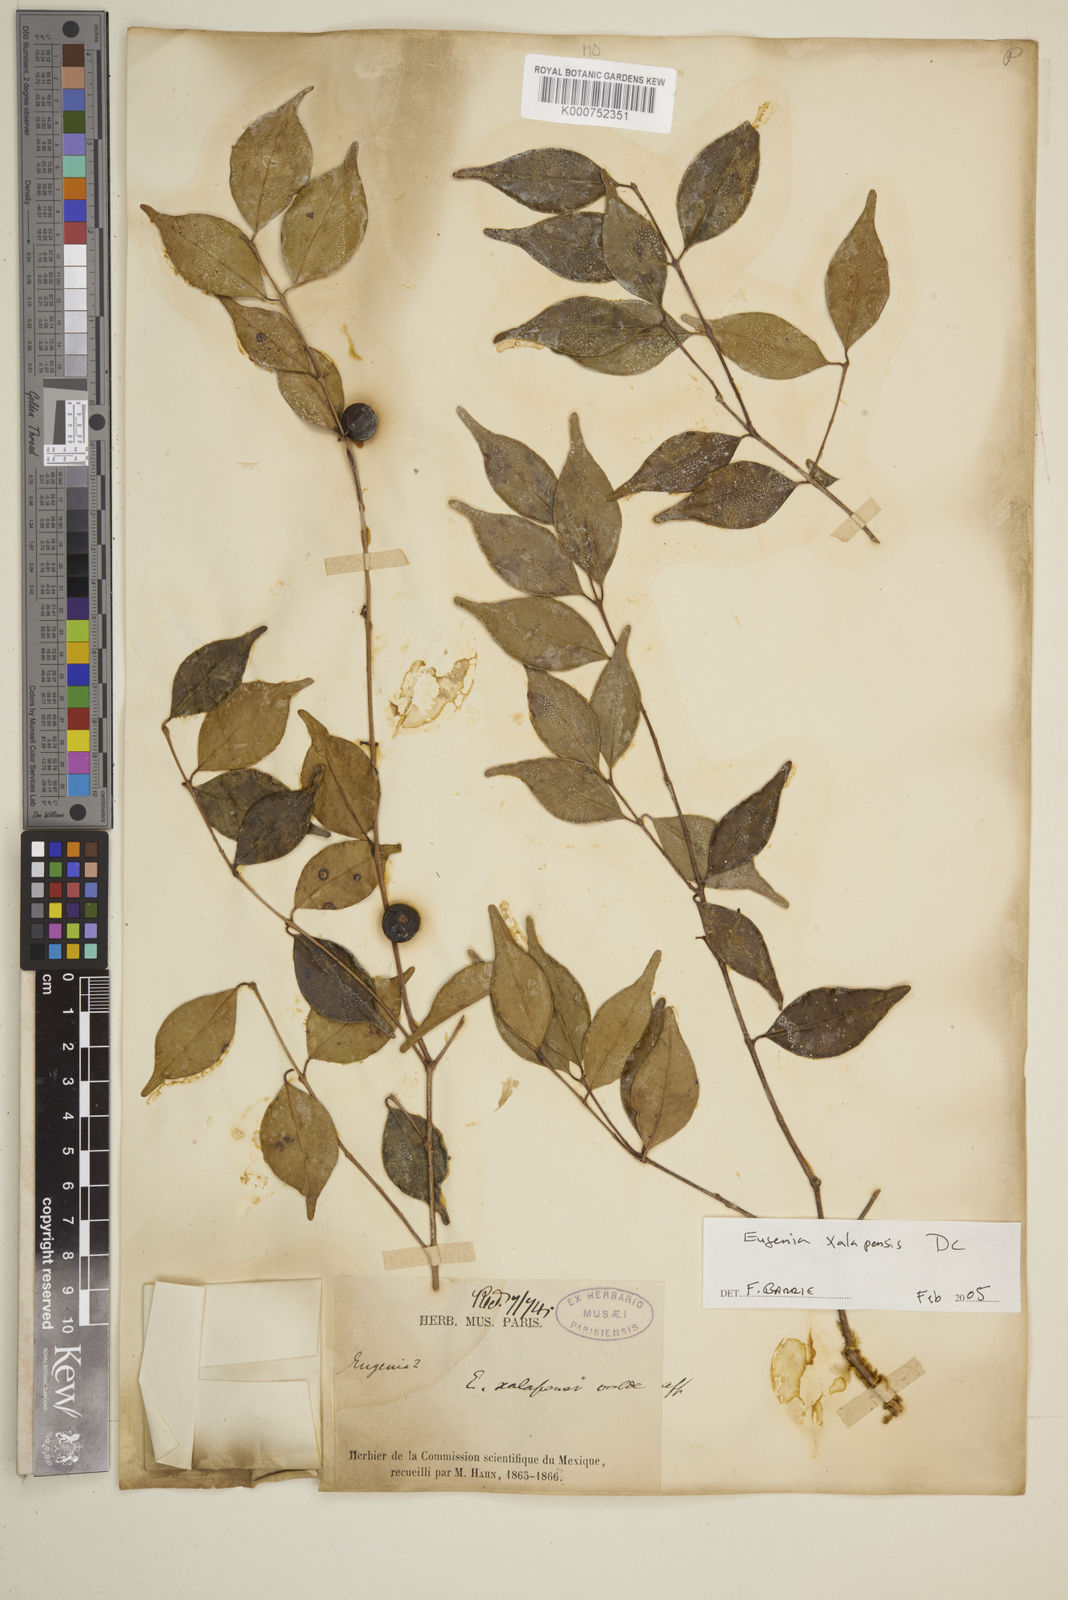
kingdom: Plantae
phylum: Tracheophyta
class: Magnoliopsida
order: Myrtales
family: Myrtaceae
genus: Eugenia
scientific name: Eugenia xalapensis
